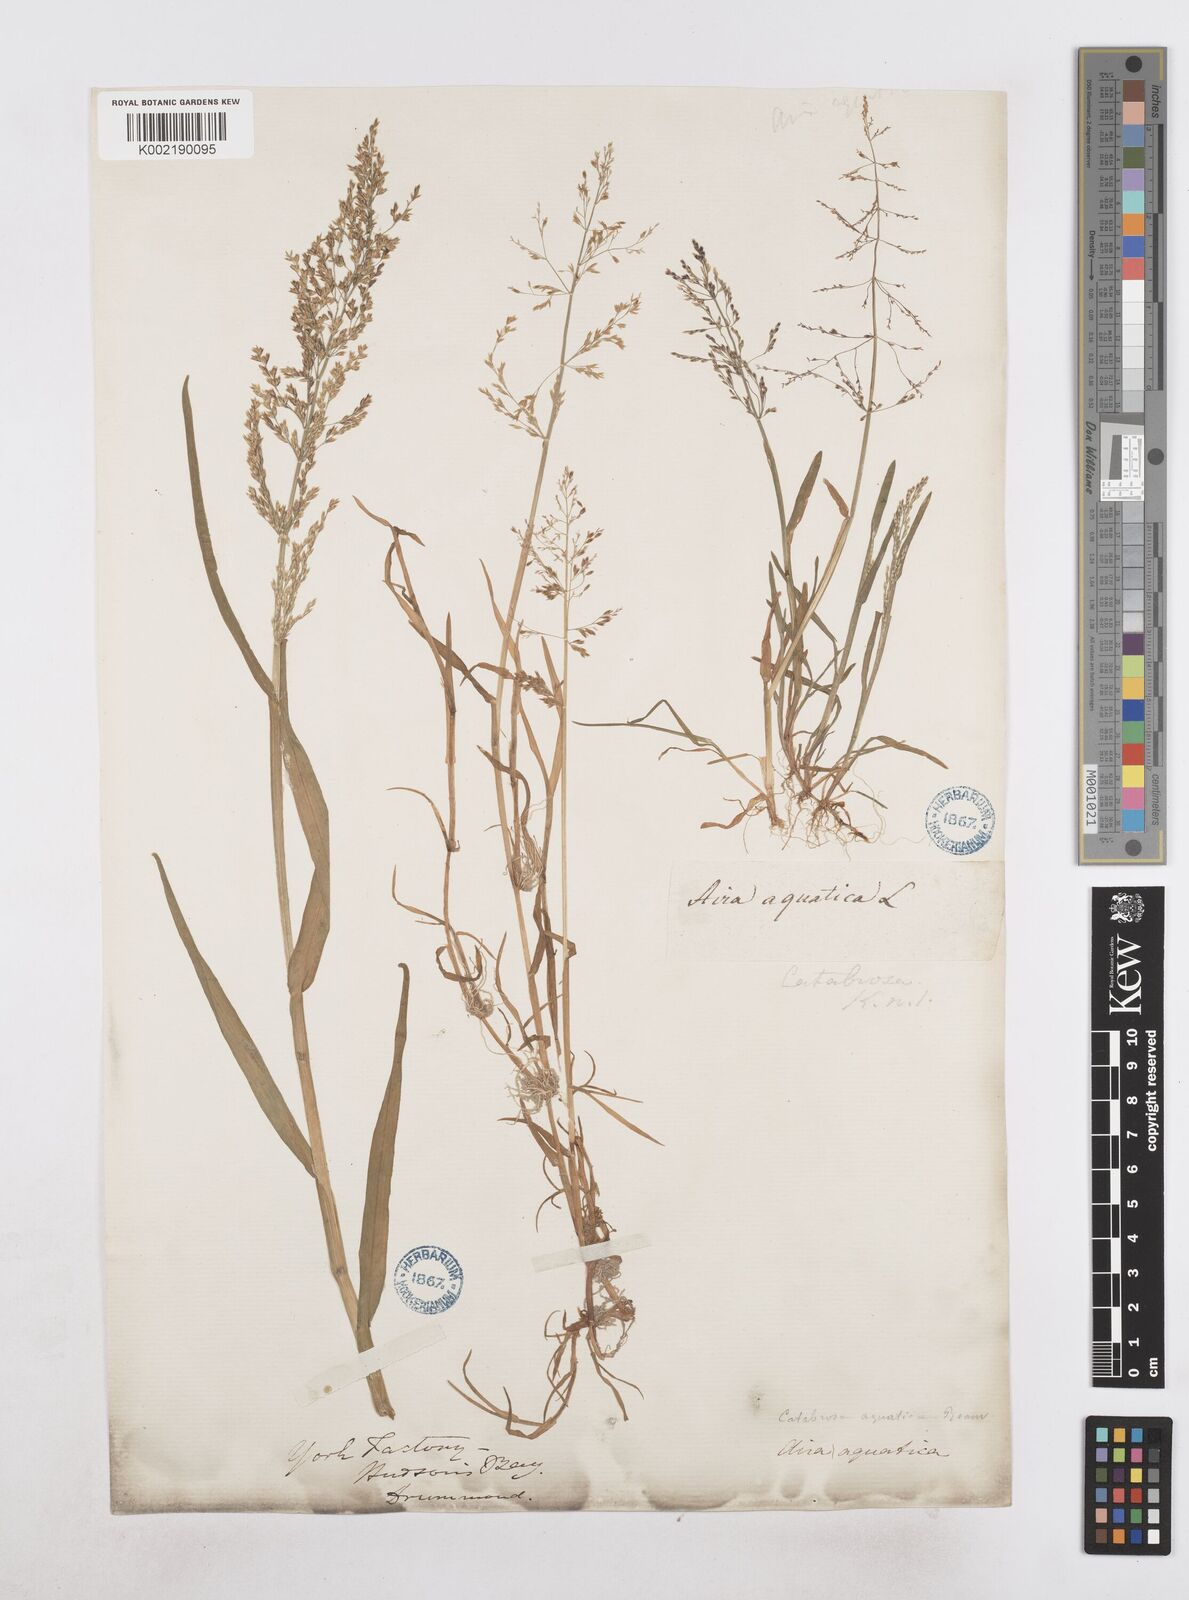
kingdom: Plantae
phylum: Tracheophyta
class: Liliopsida
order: Poales
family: Poaceae
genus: Catabrosa
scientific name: Catabrosa aquatica
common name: Whorl-grass
